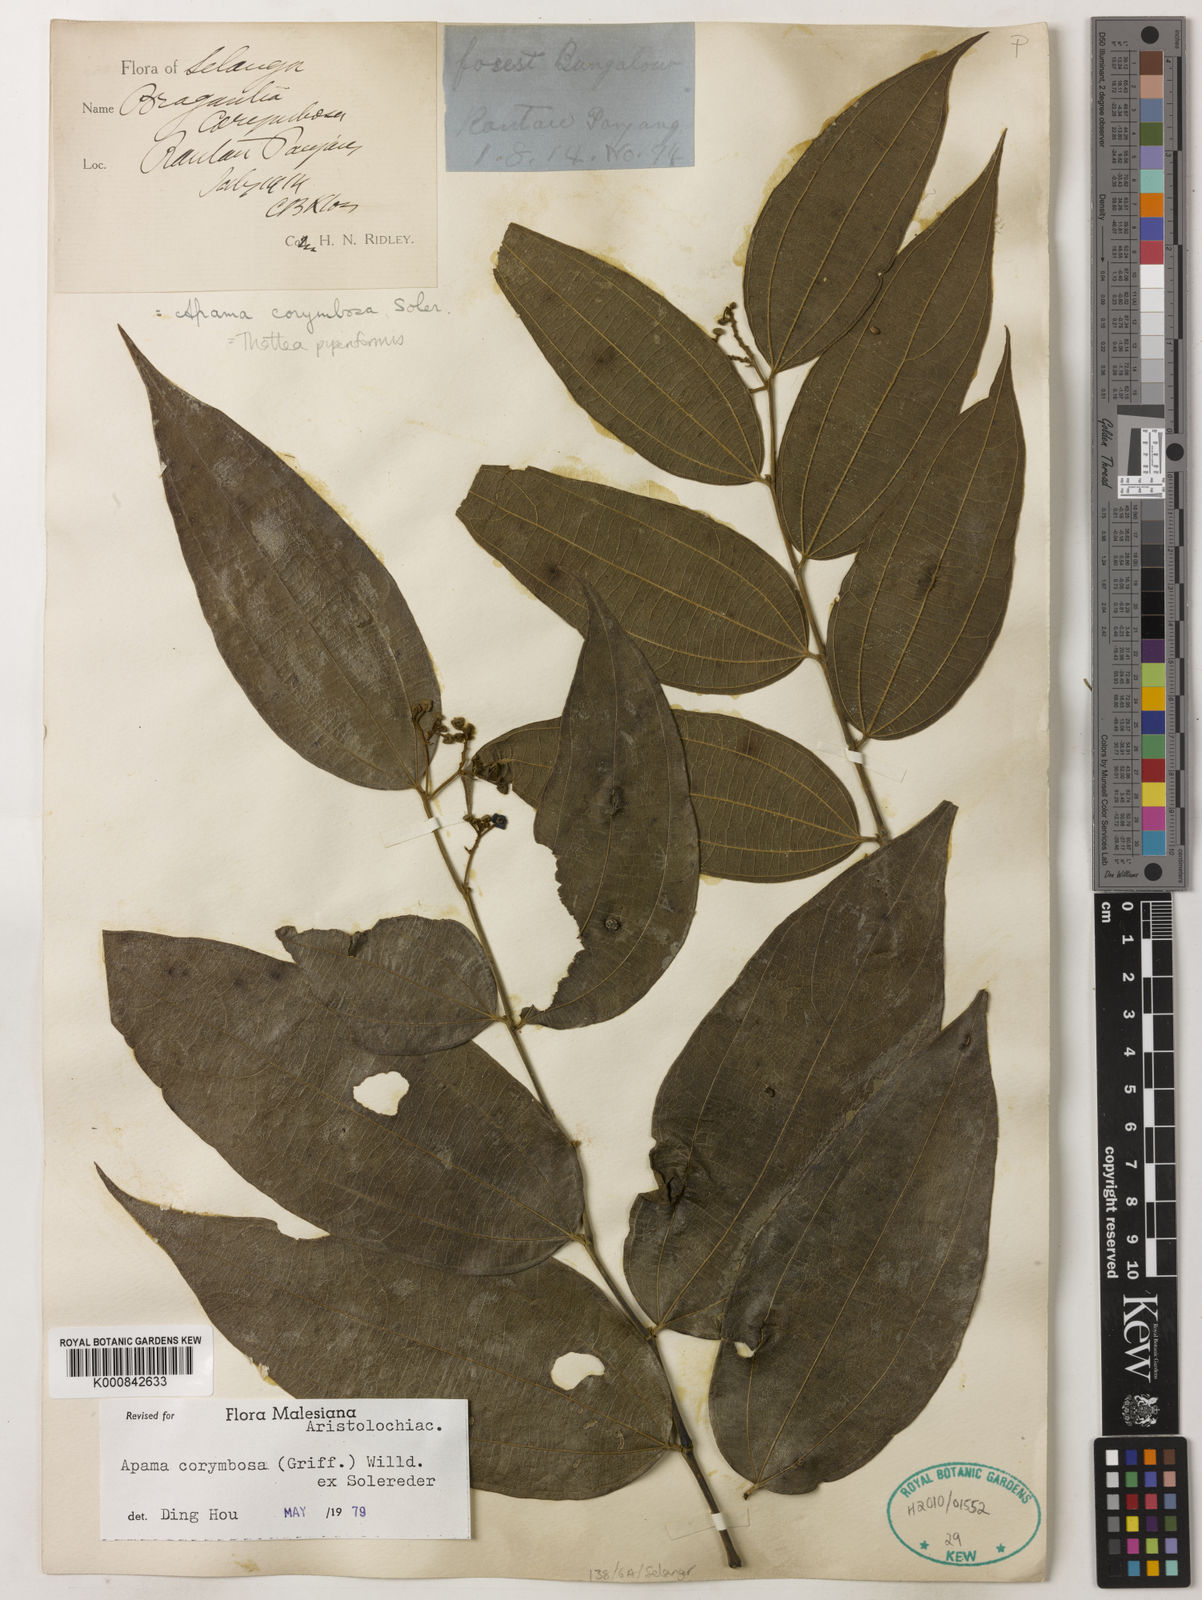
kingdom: Plantae
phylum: Tracheophyta
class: Magnoliopsida
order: Piperales
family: Aristolochiaceae
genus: Thottea
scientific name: Thottea piperiformis
